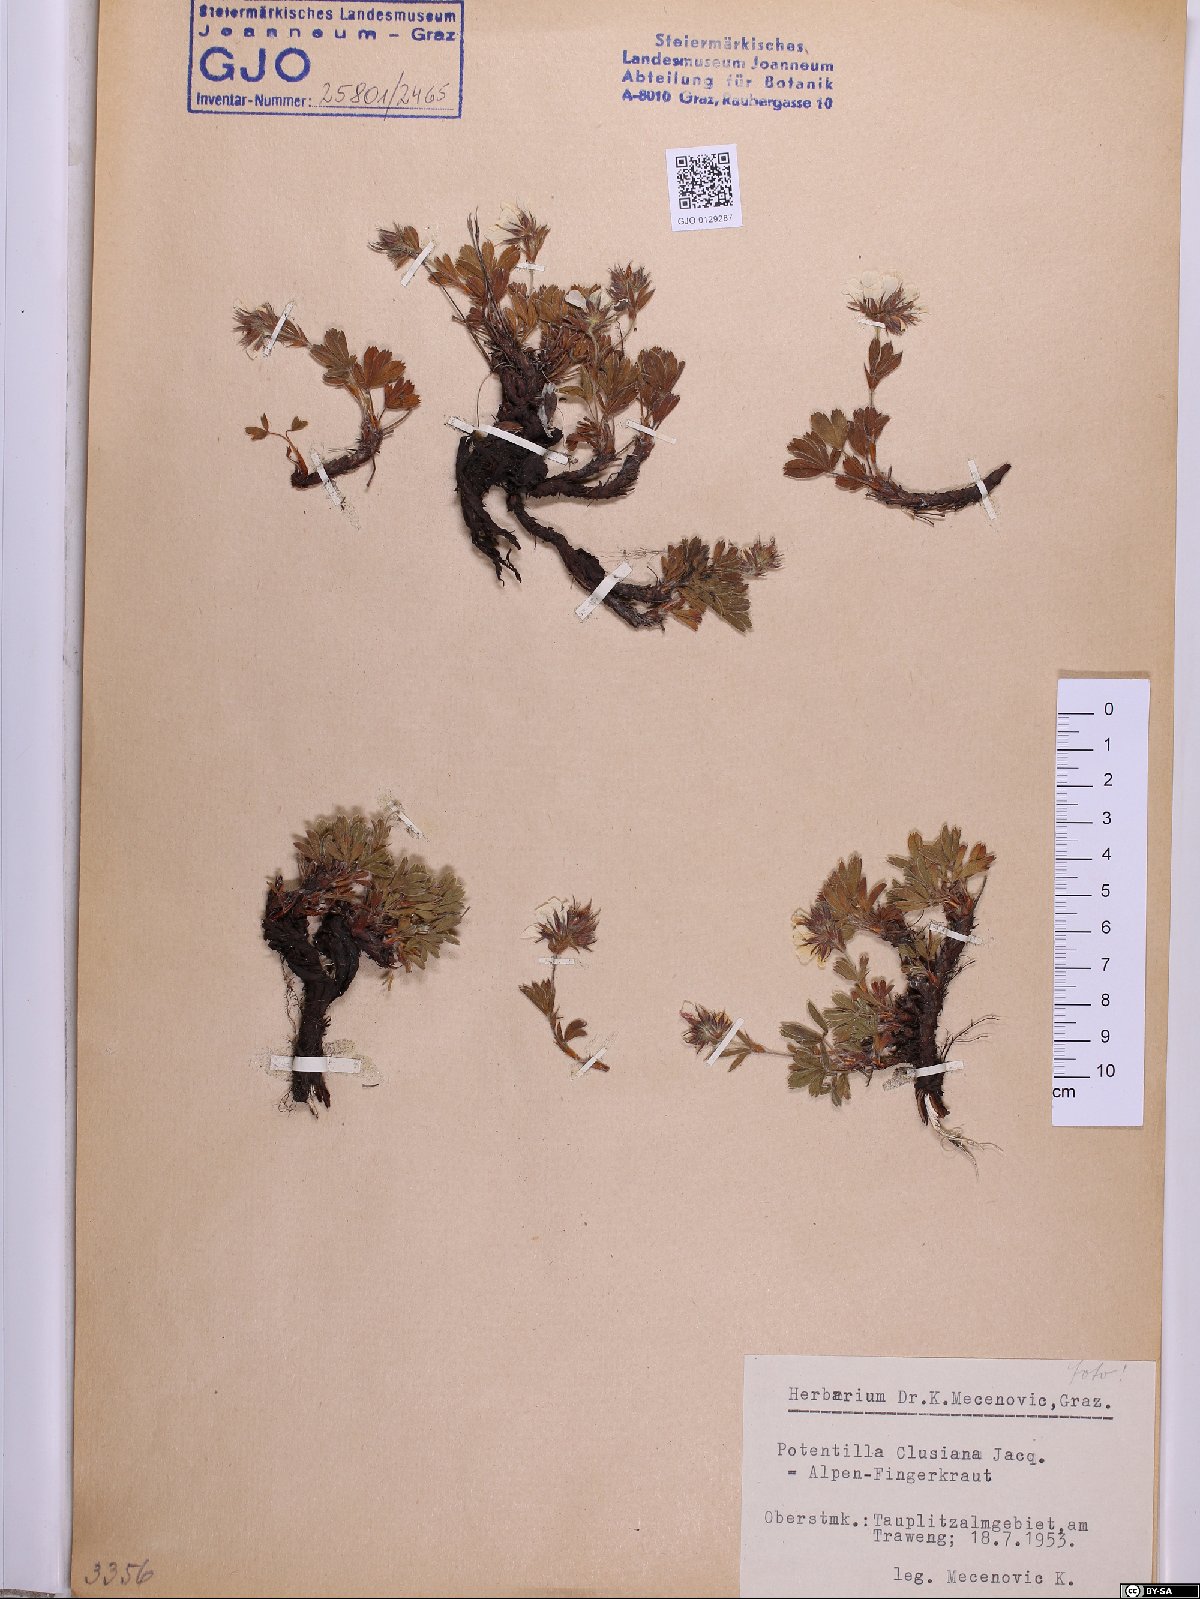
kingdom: Plantae
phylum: Tracheophyta
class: Magnoliopsida
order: Rosales
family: Rosaceae
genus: Potentilla
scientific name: Potentilla clusiana
